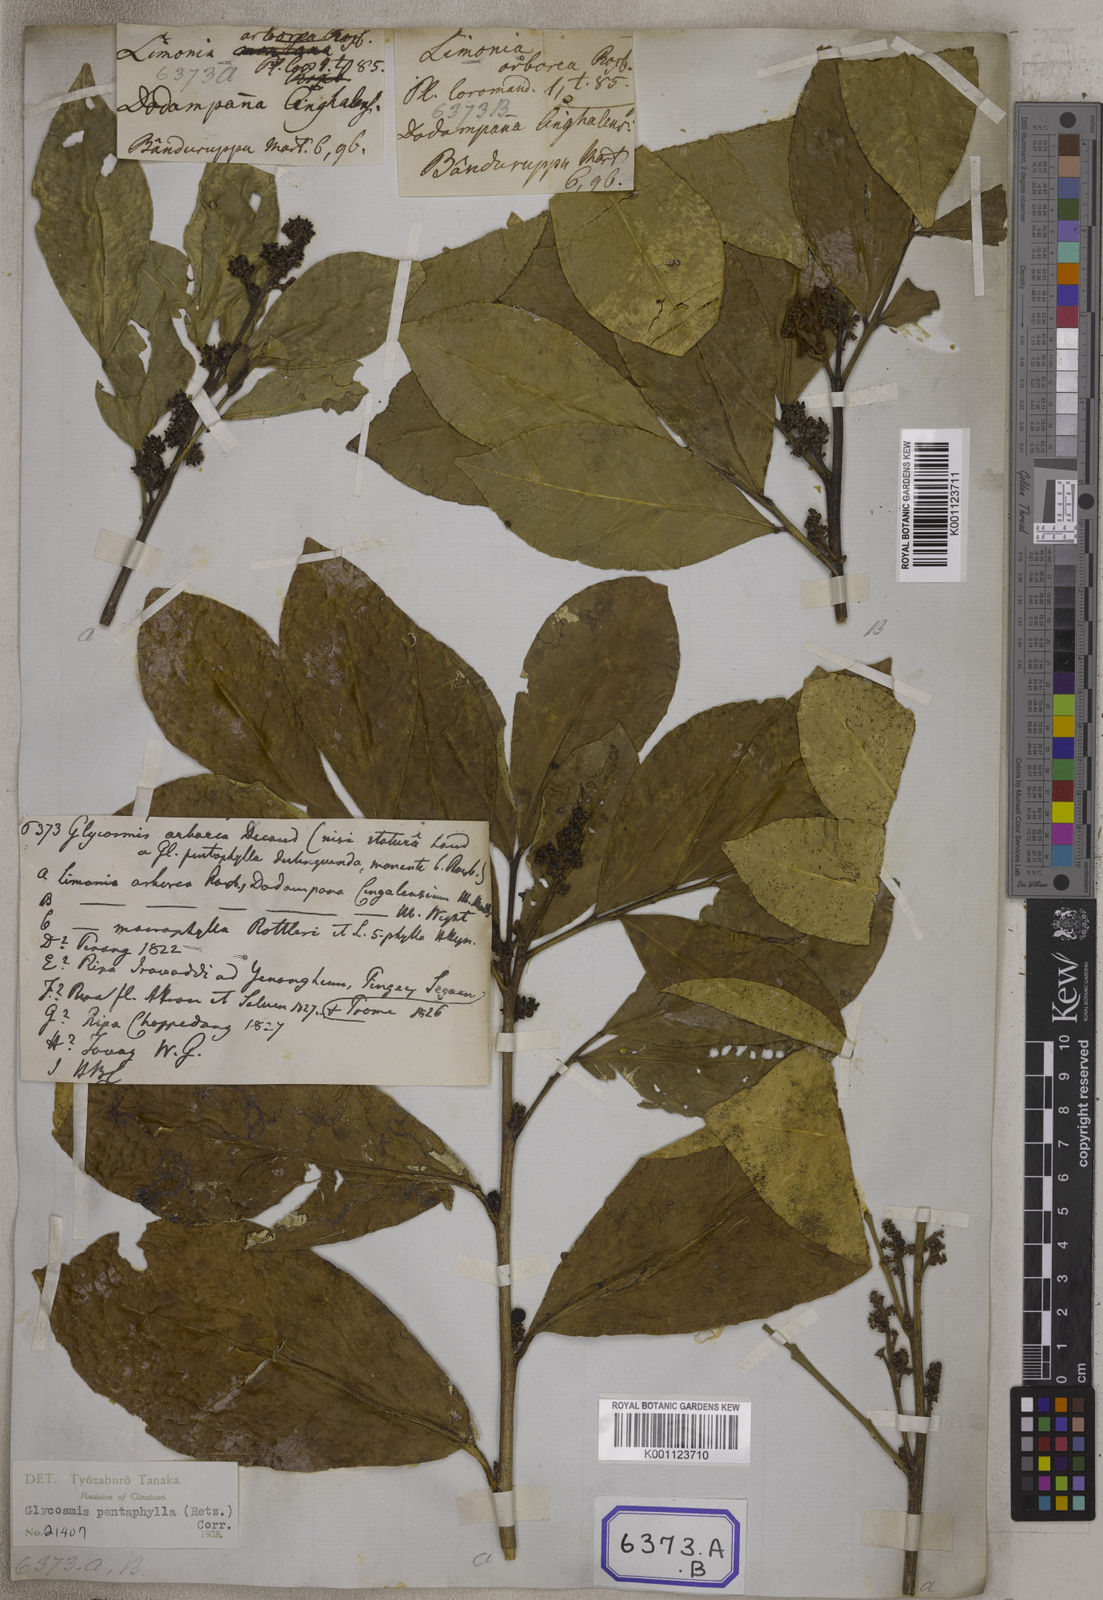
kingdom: Plantae
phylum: Tracheophyta
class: Magnoliopsida
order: Sapindales
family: Rutaceae
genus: Glycosmis
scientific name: Glycosmis pentaphylla
